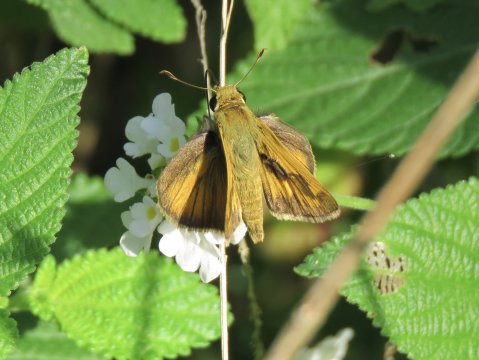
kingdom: Animalia
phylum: Arthropoda
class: Insecta
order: Lepidoptera
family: Hesperiidae
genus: Polites
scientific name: Polites vibex
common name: Whirlabout
